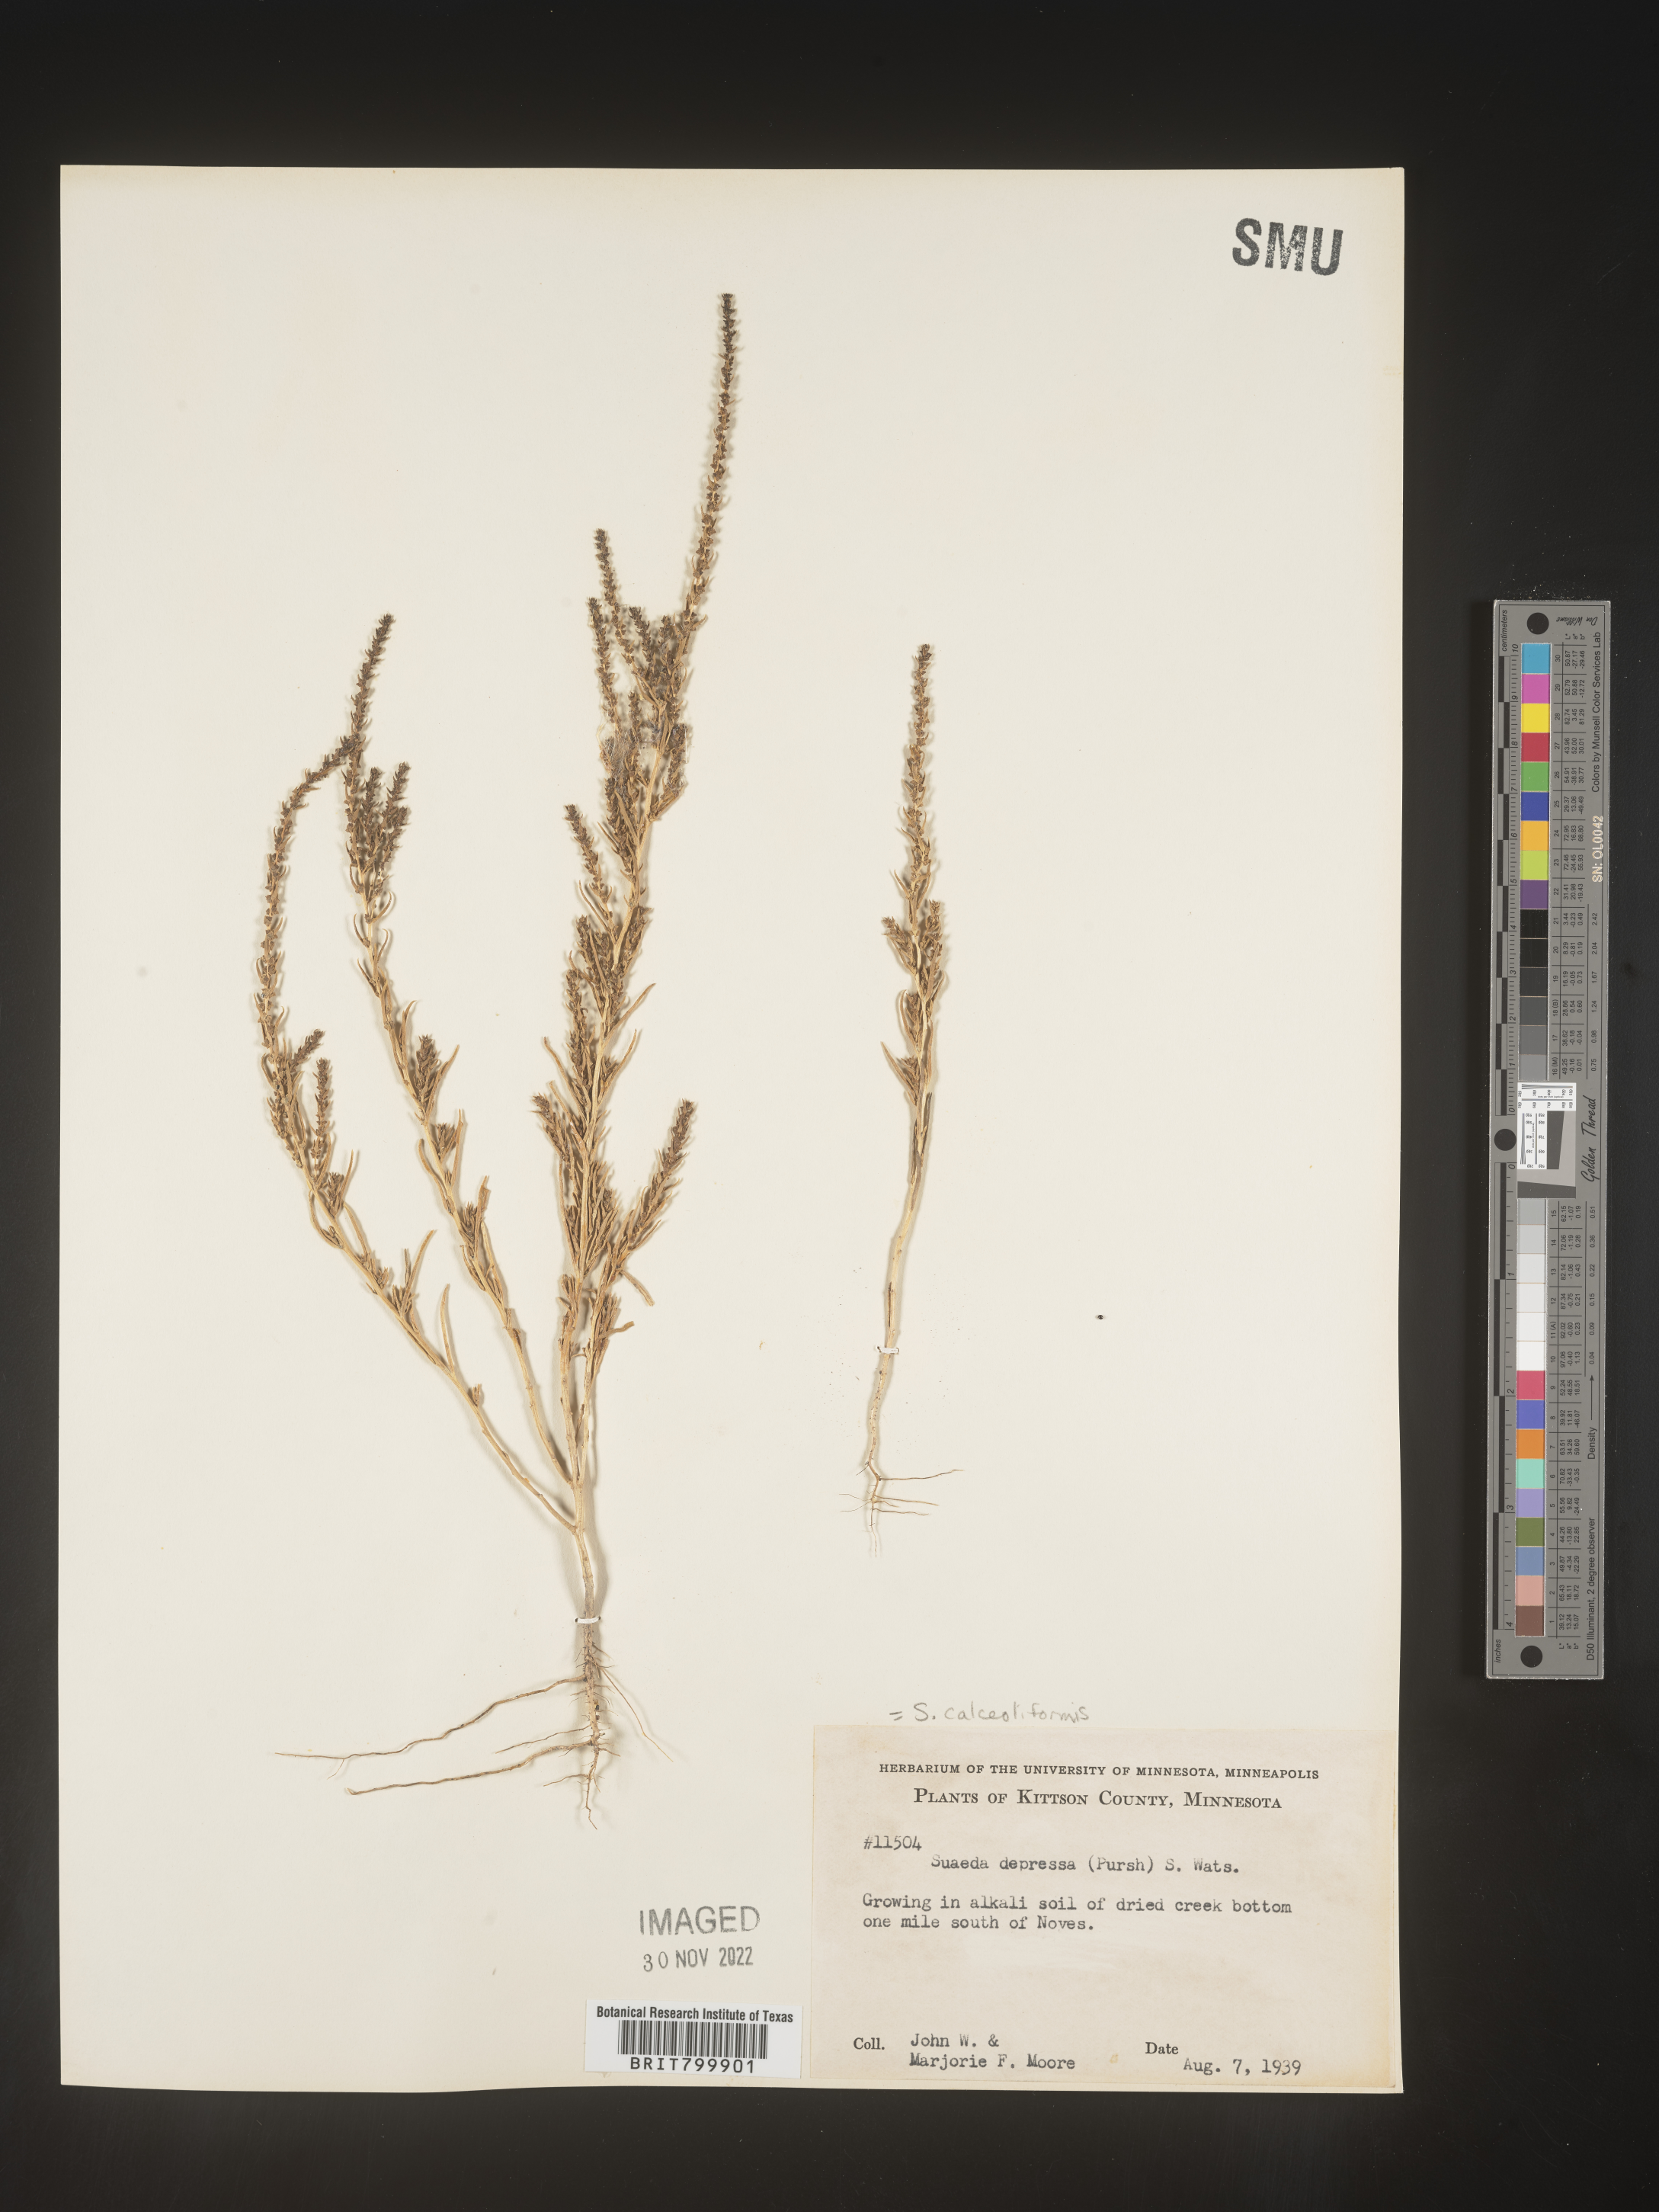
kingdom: Plantae
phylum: Tracheophyta
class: Magnoliopsida
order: Caryophyllales
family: Amaranthaceae
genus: Suaeda
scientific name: Suaeda calceoliformis
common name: Pursh's seepweed
